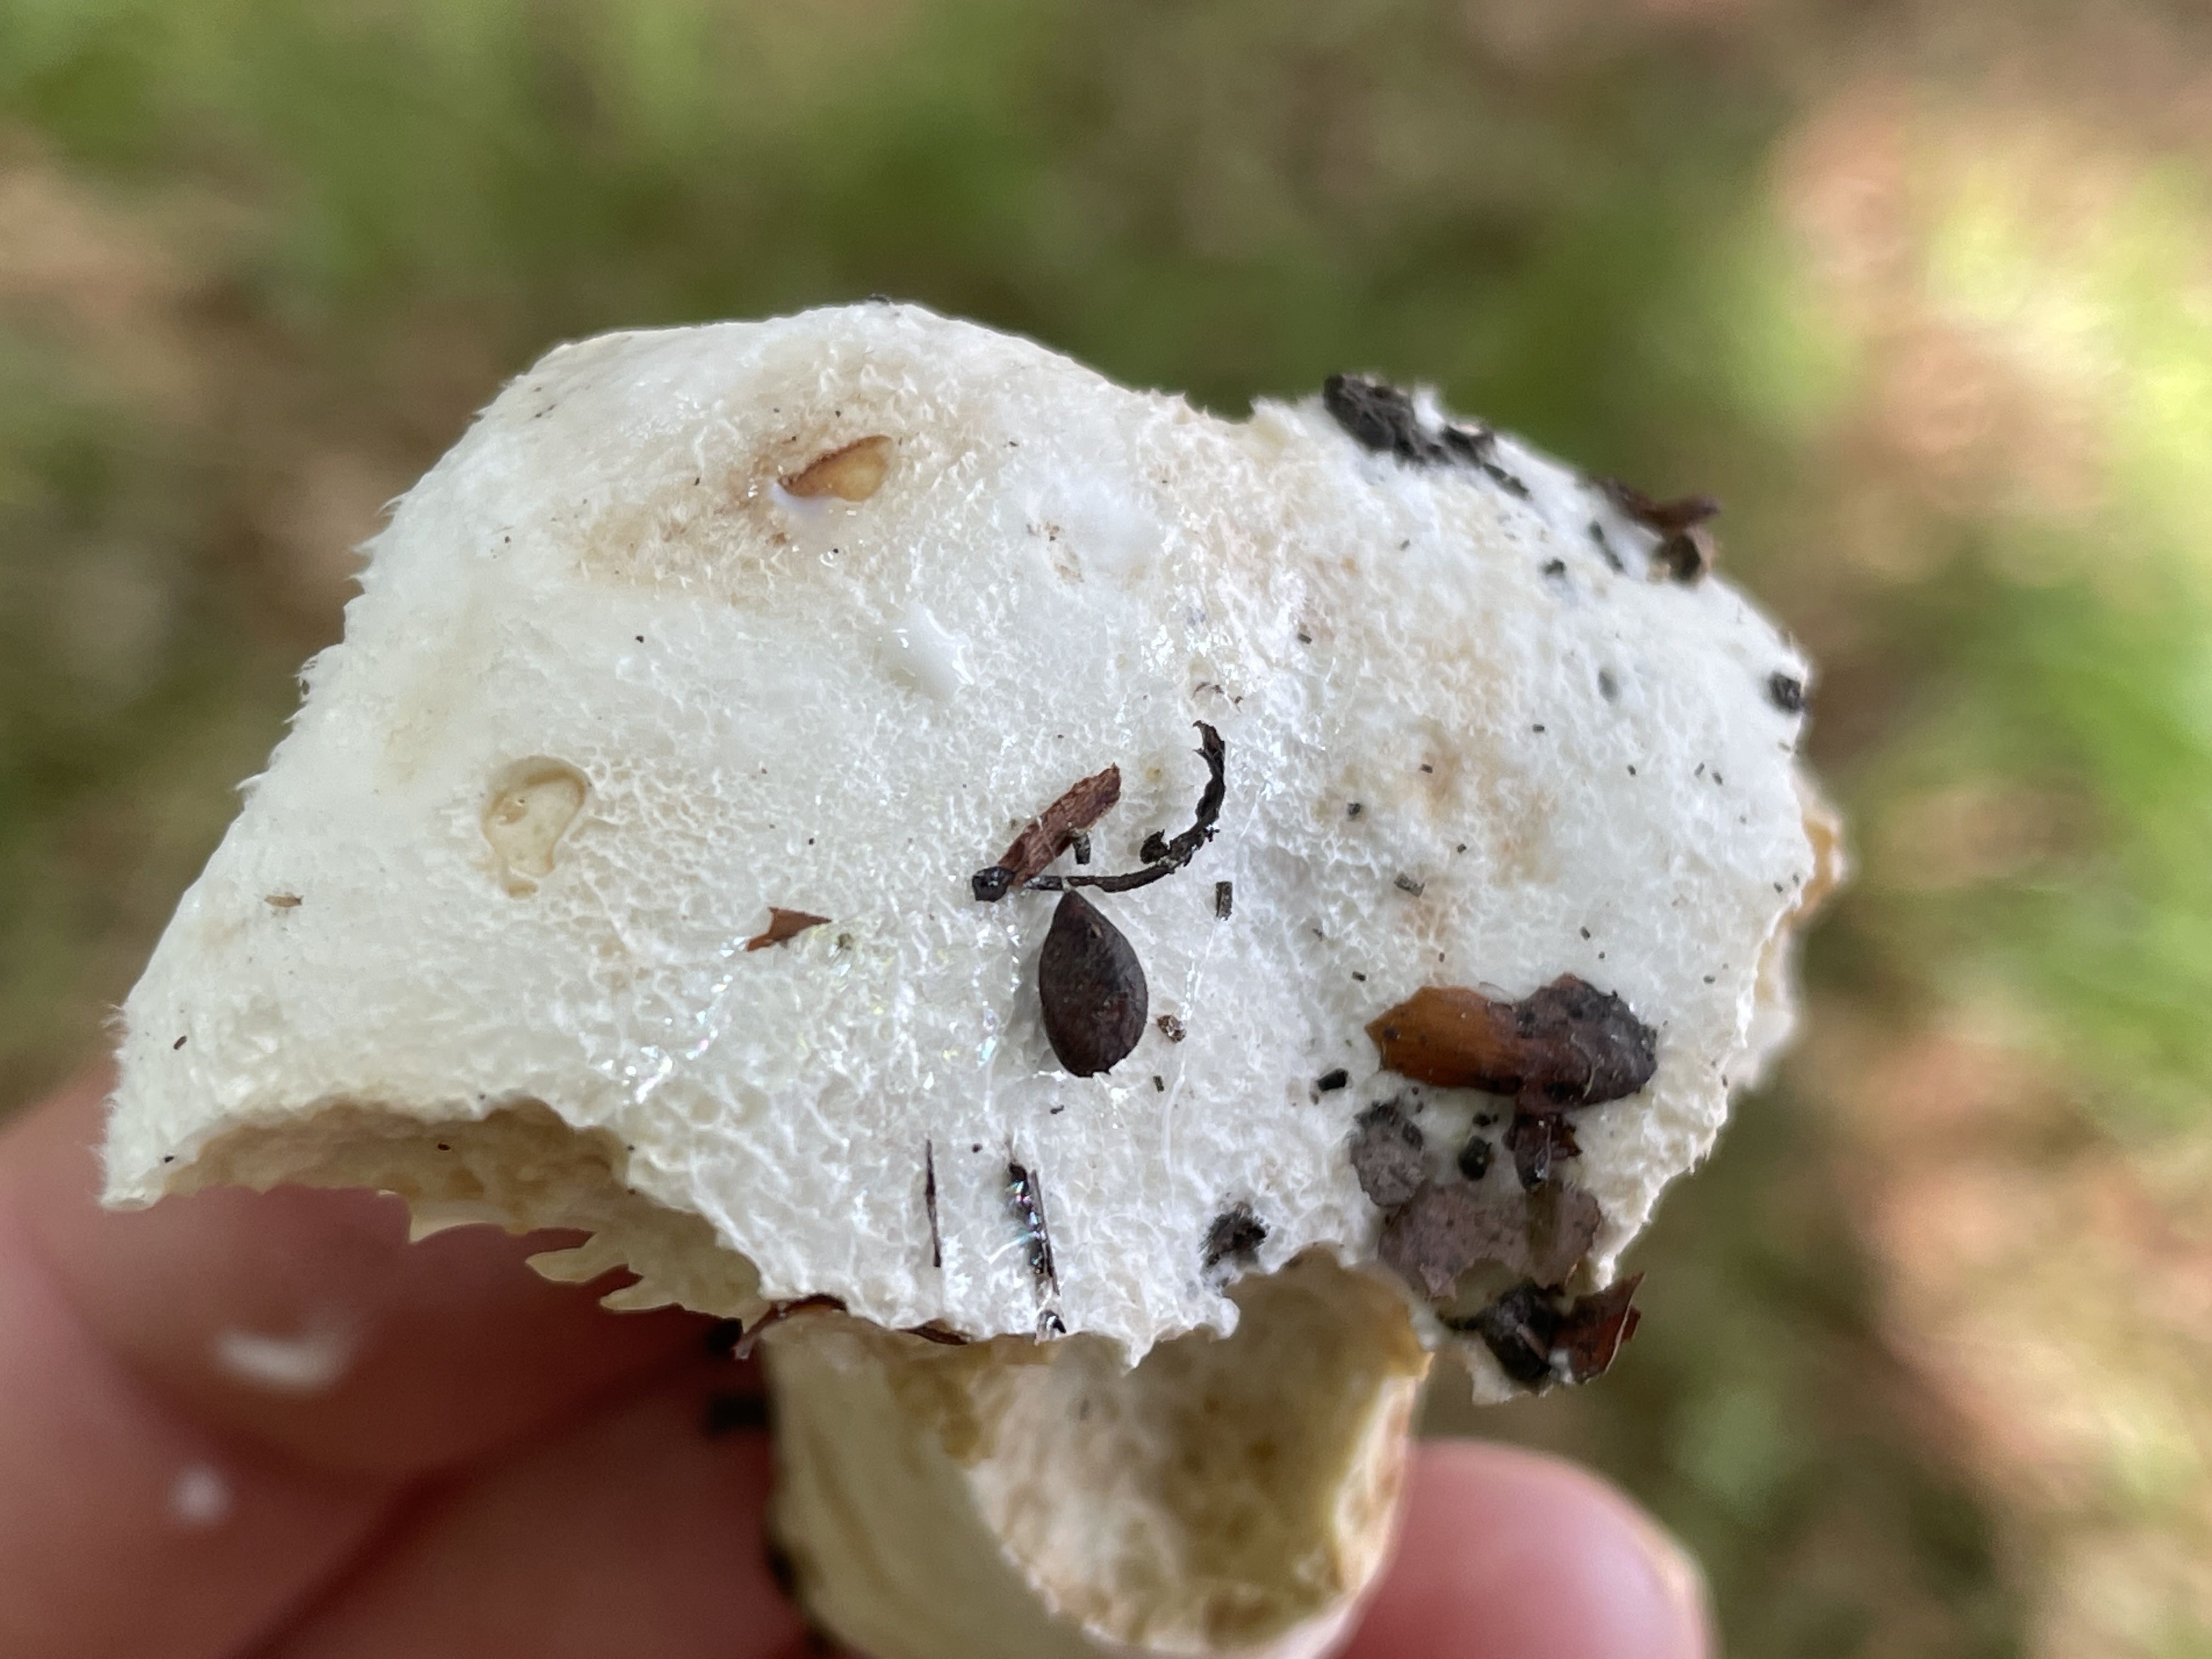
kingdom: Fungi
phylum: Basidiomycota
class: Agaricomycetes
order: Russulales
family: Russulaceae
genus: Lactifluus
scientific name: Lactifluus vellereus
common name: hvidfiltet mælkehat
